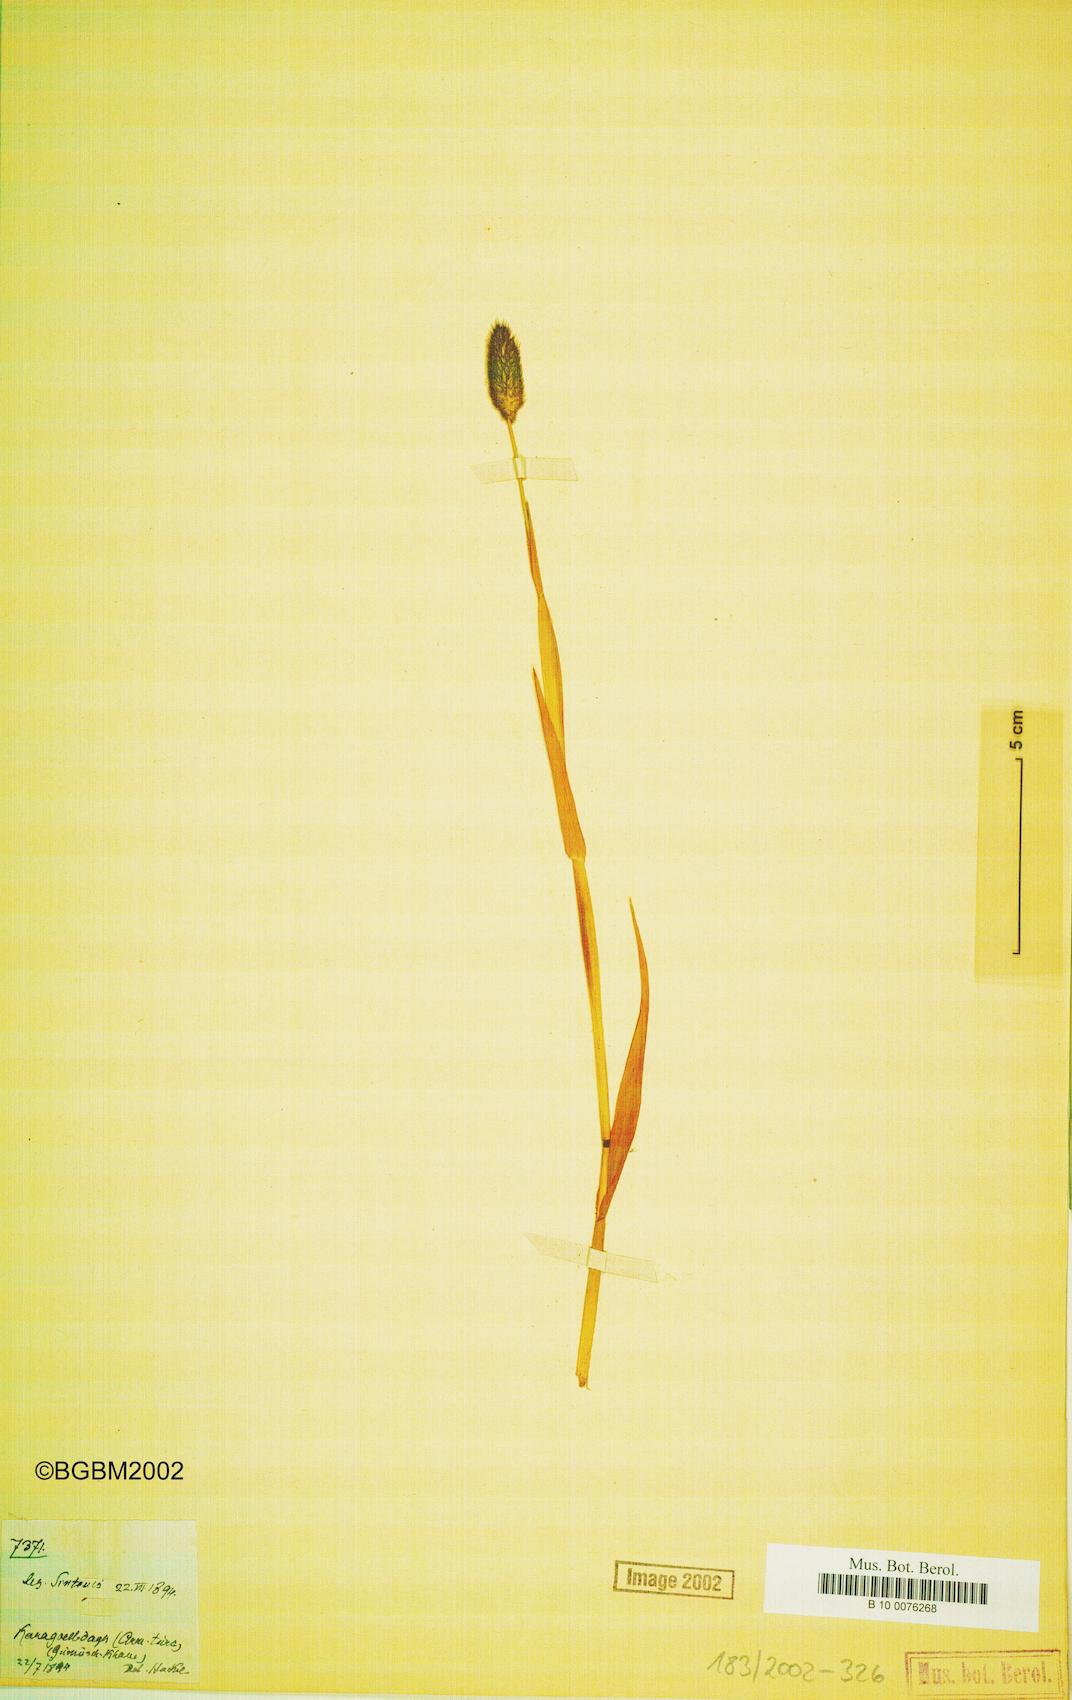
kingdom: Plantae
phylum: Tracheophyta
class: Liliopsida
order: Poales
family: Poaceae
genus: Phleum
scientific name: Phleum alpinum
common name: Alpine cat's-tail
